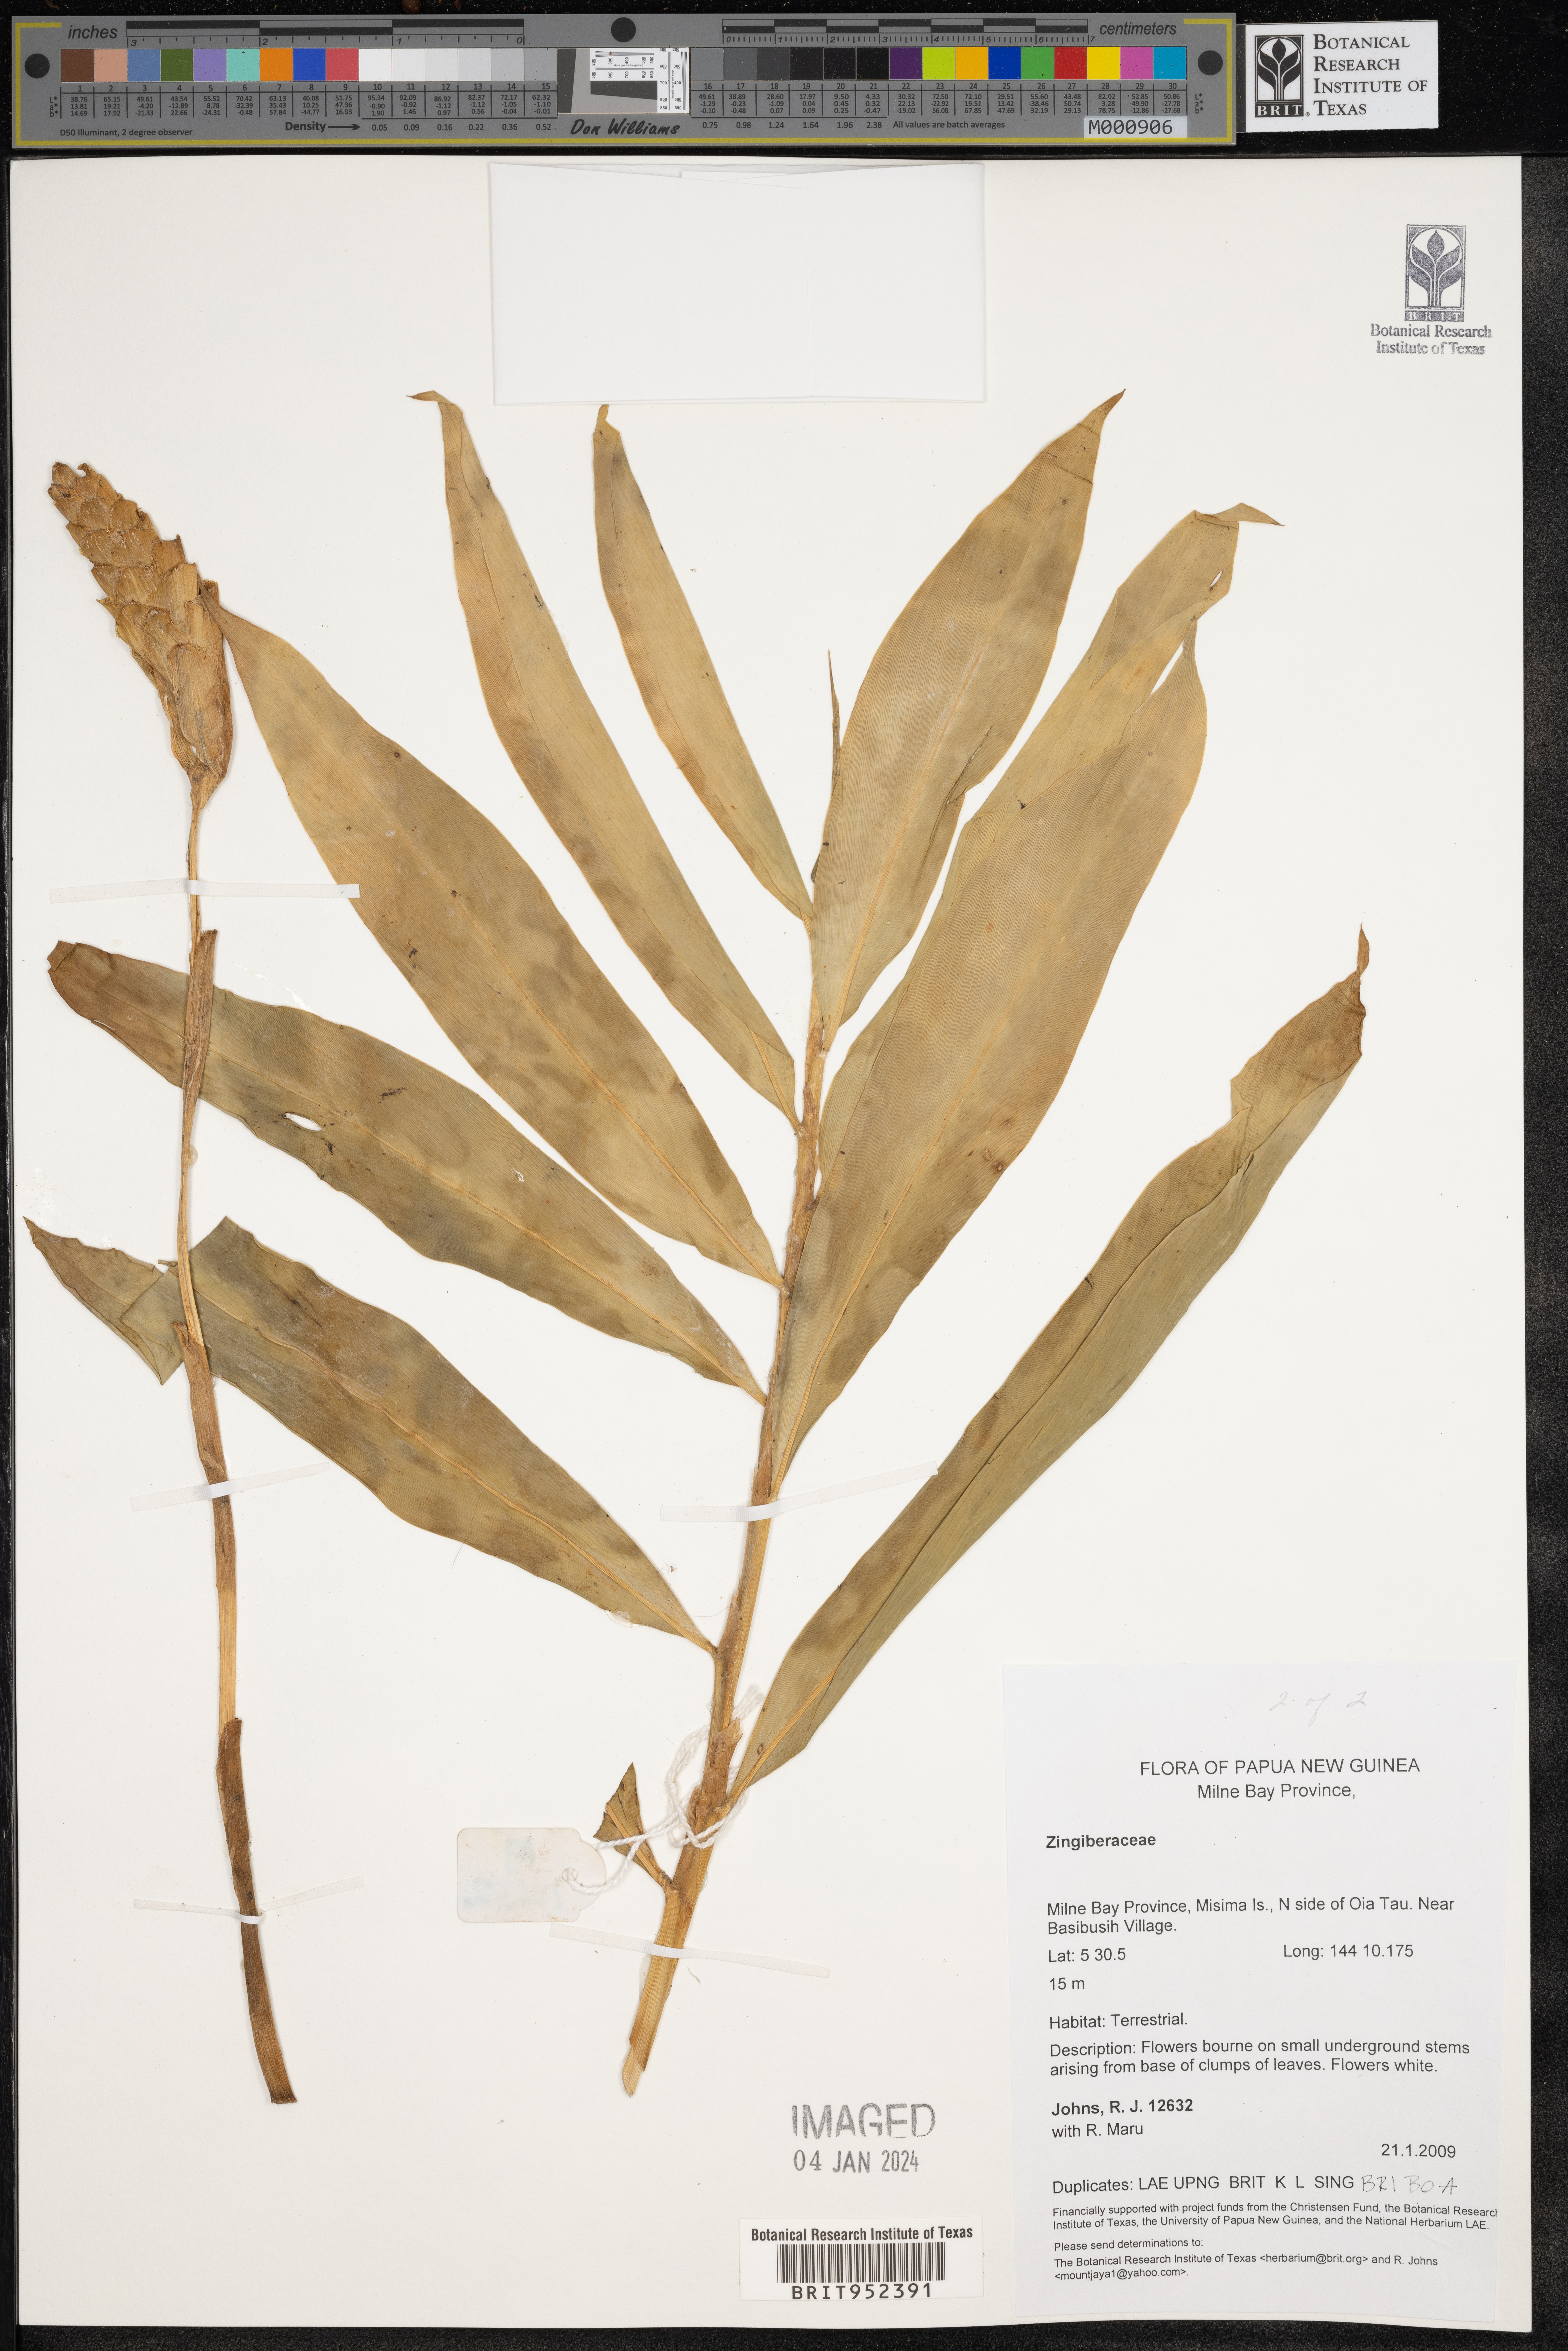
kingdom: Plantae
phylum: Tracheophyta
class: Liliopsida
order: Zingiberales
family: Zingiberaceae
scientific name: Zingiberaceae
